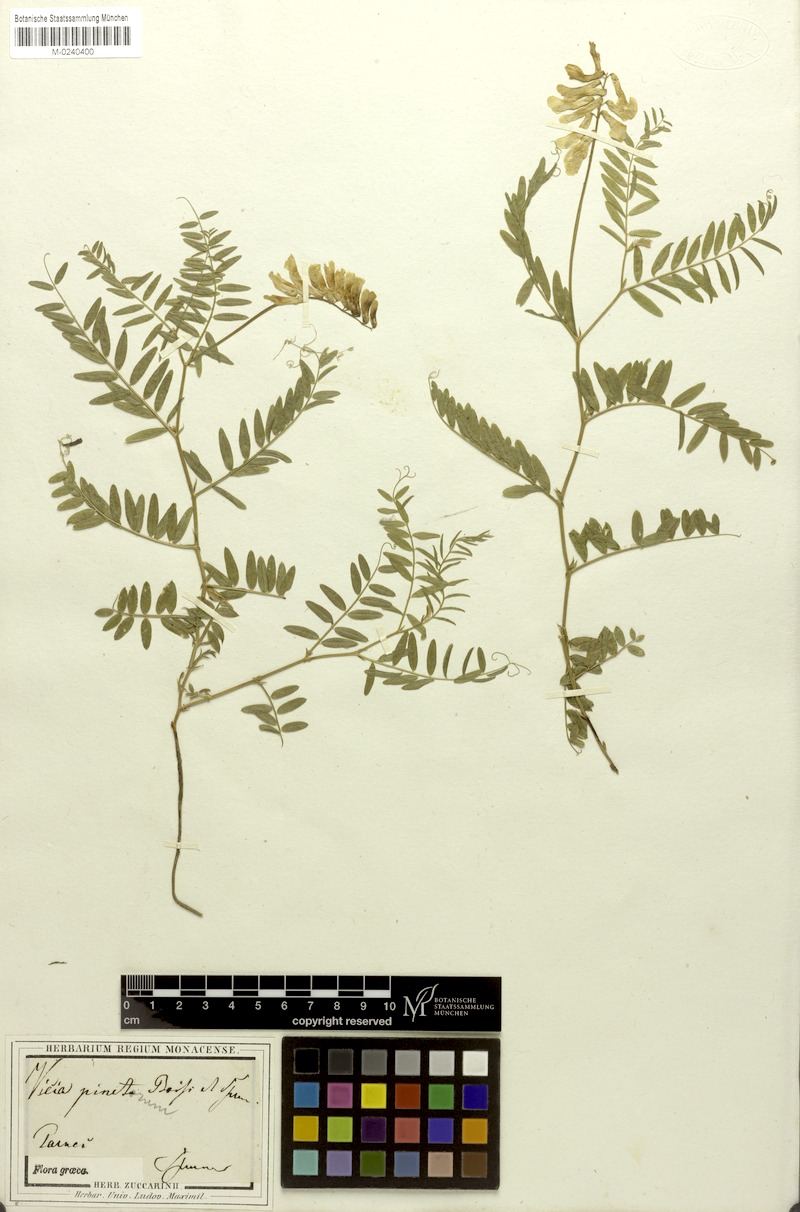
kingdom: Plantae
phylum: Tracheophyta
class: Magnoliopsida
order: Fabales
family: Fabaceae
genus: Vicia
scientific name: Vicia pinetorum
